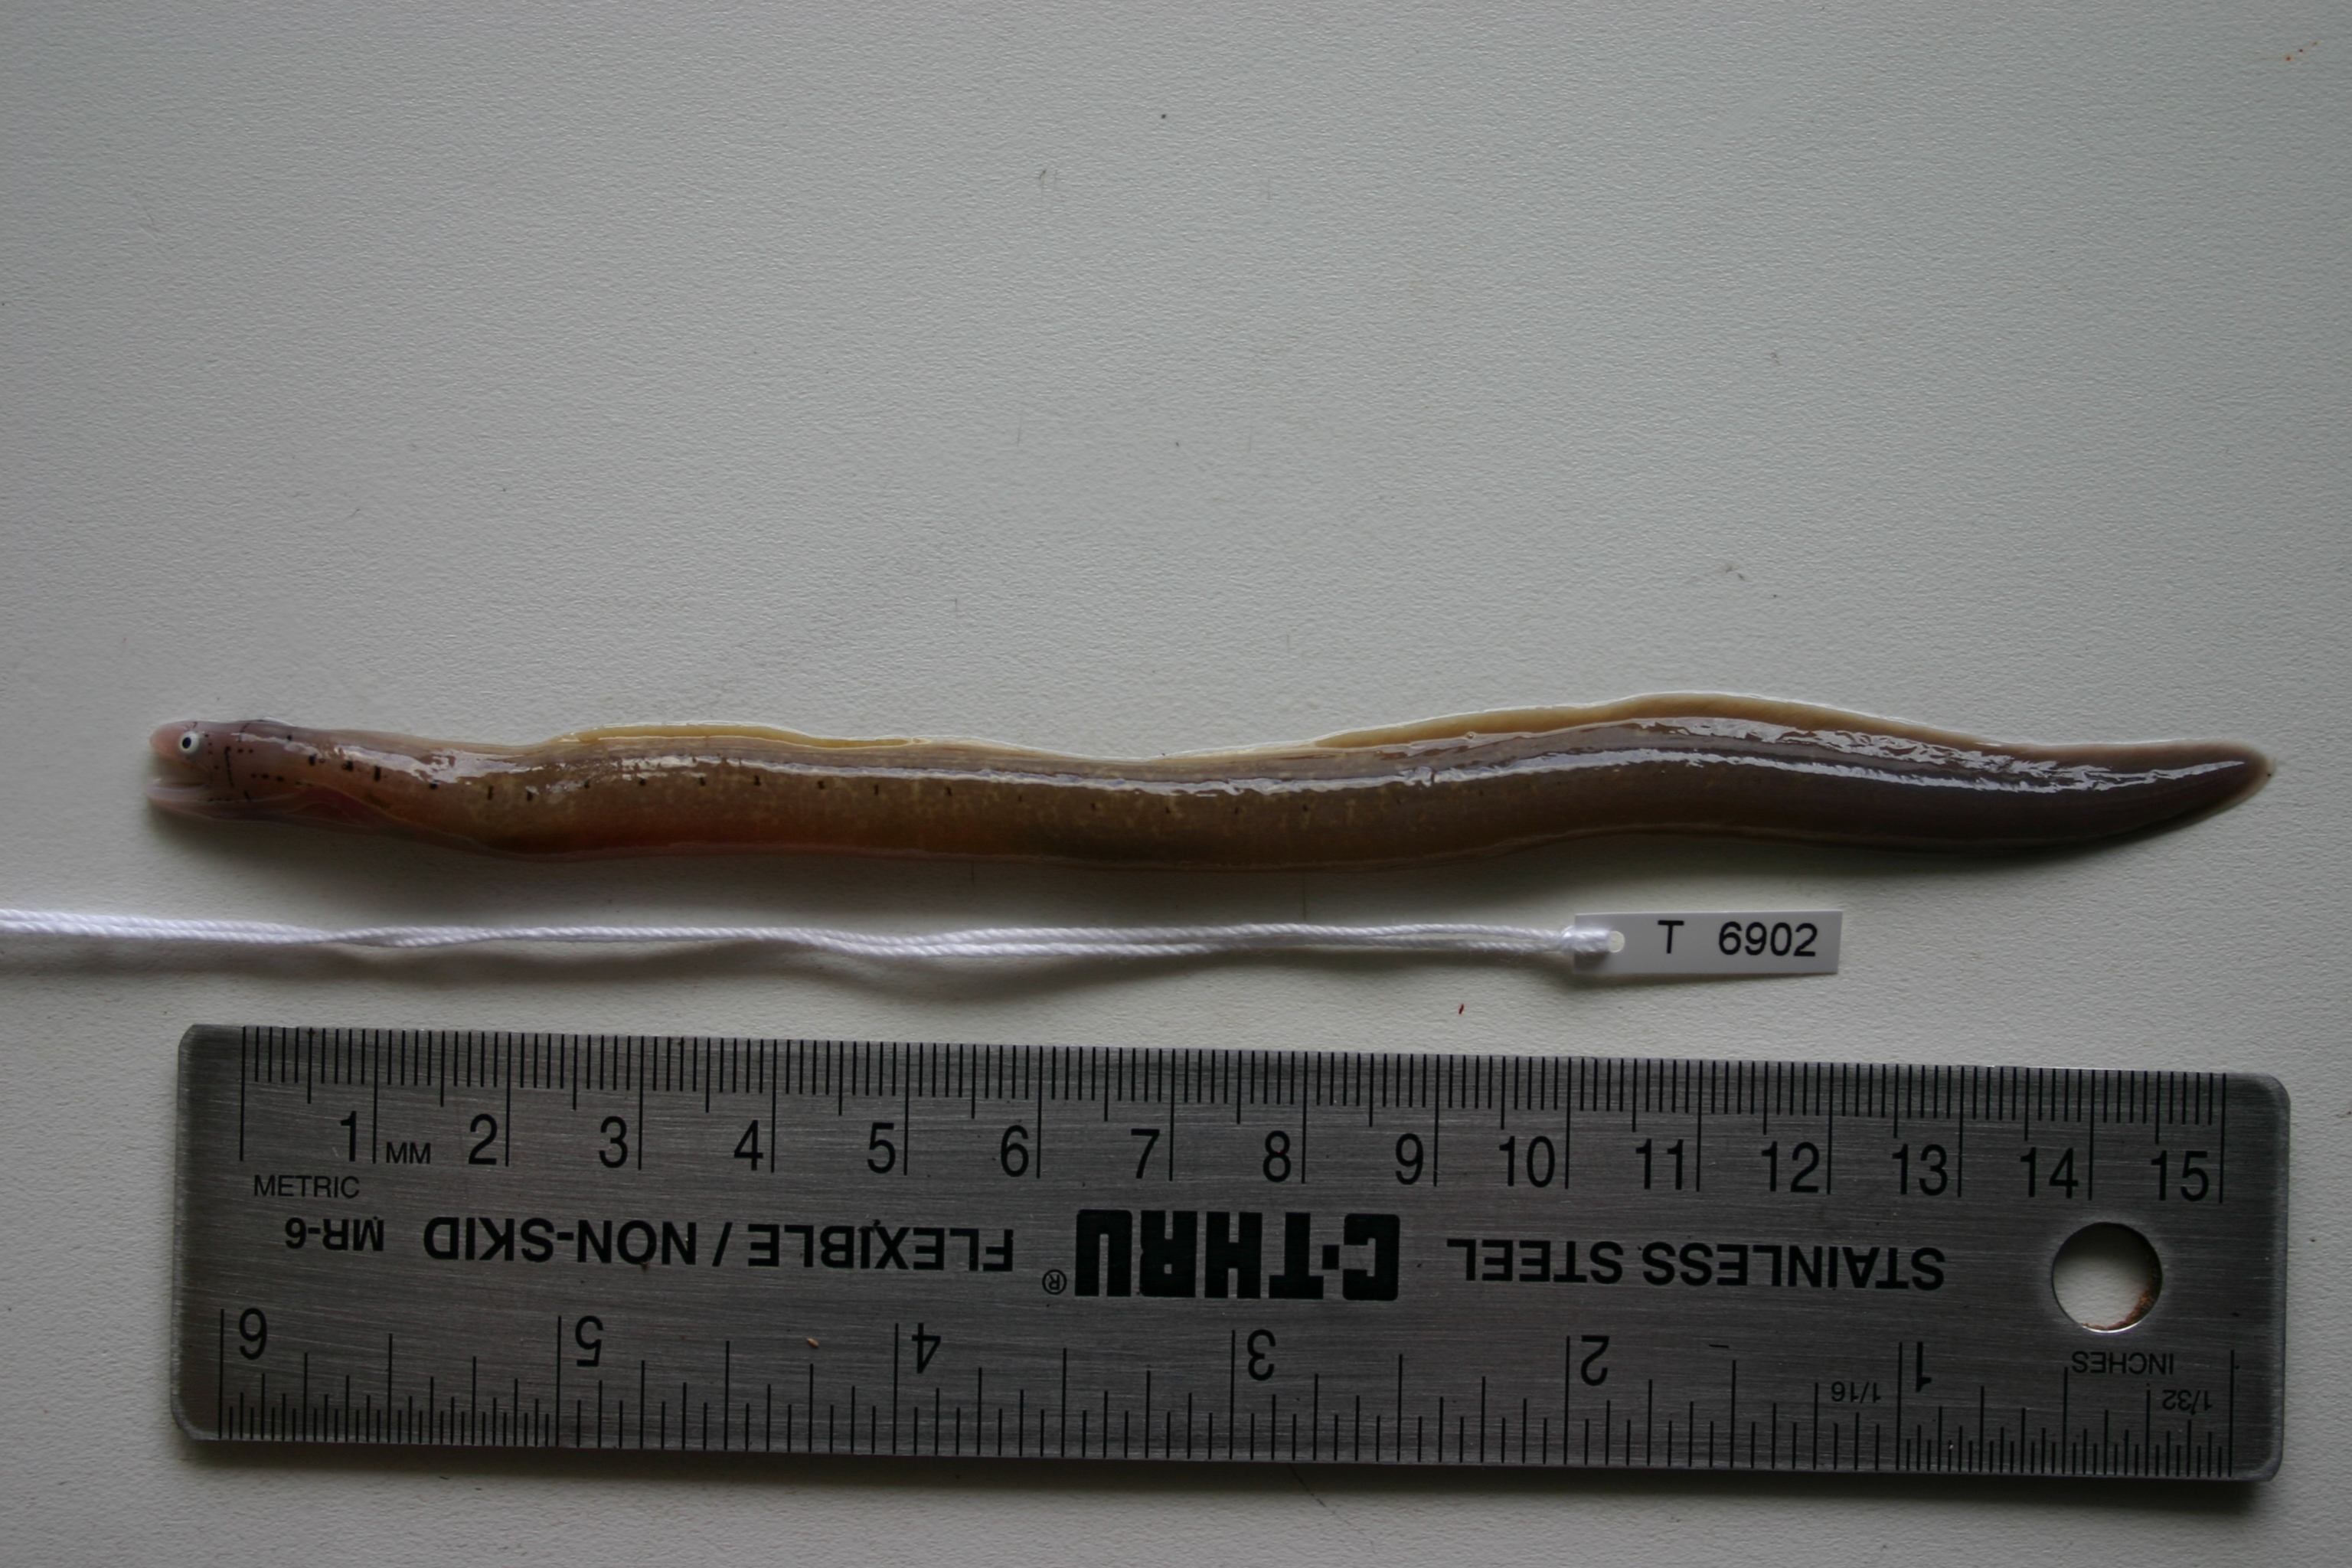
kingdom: Animalia
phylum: Chordata
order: Anguilliformes
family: Muraenidae
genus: Gymnothorax
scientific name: Gymnothorax griseus
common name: Geometric moray
